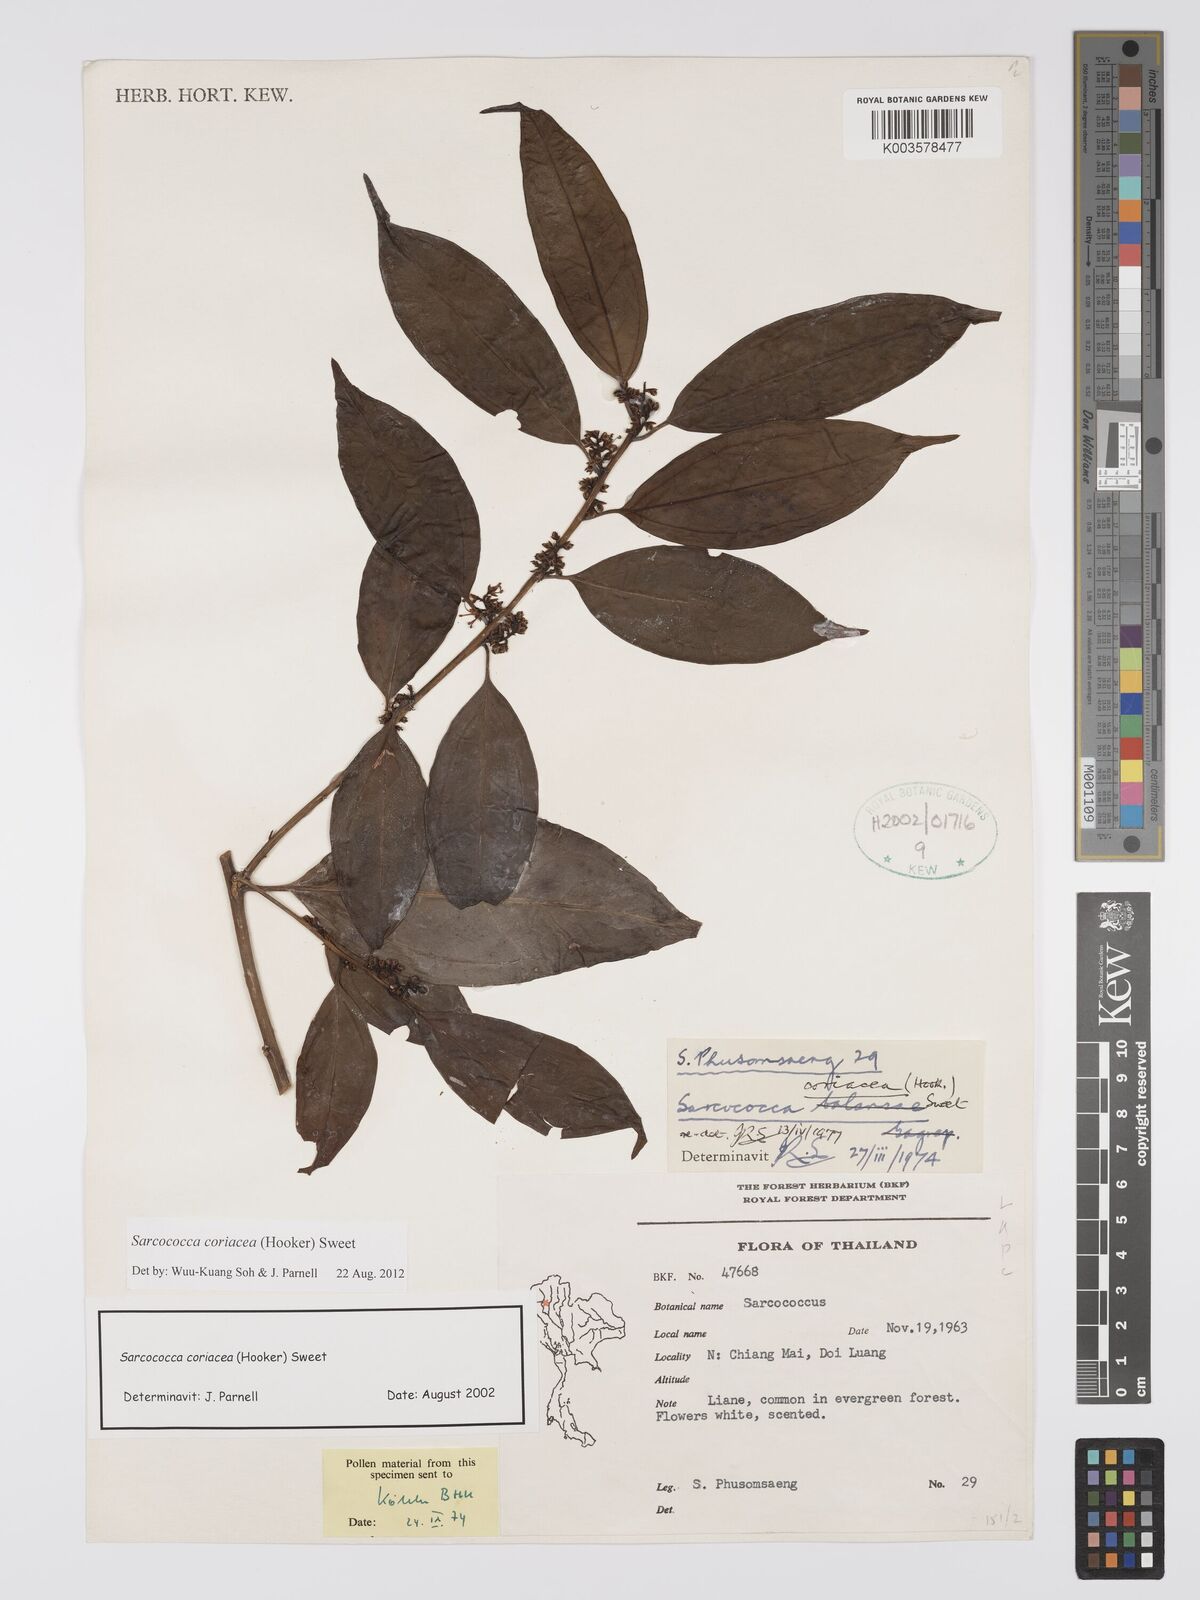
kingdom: Plantae
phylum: Tracheophyta
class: Magnoliopsida
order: Buxales
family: Buxaceae
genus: Sarcococca
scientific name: Sarcococca coriacea
